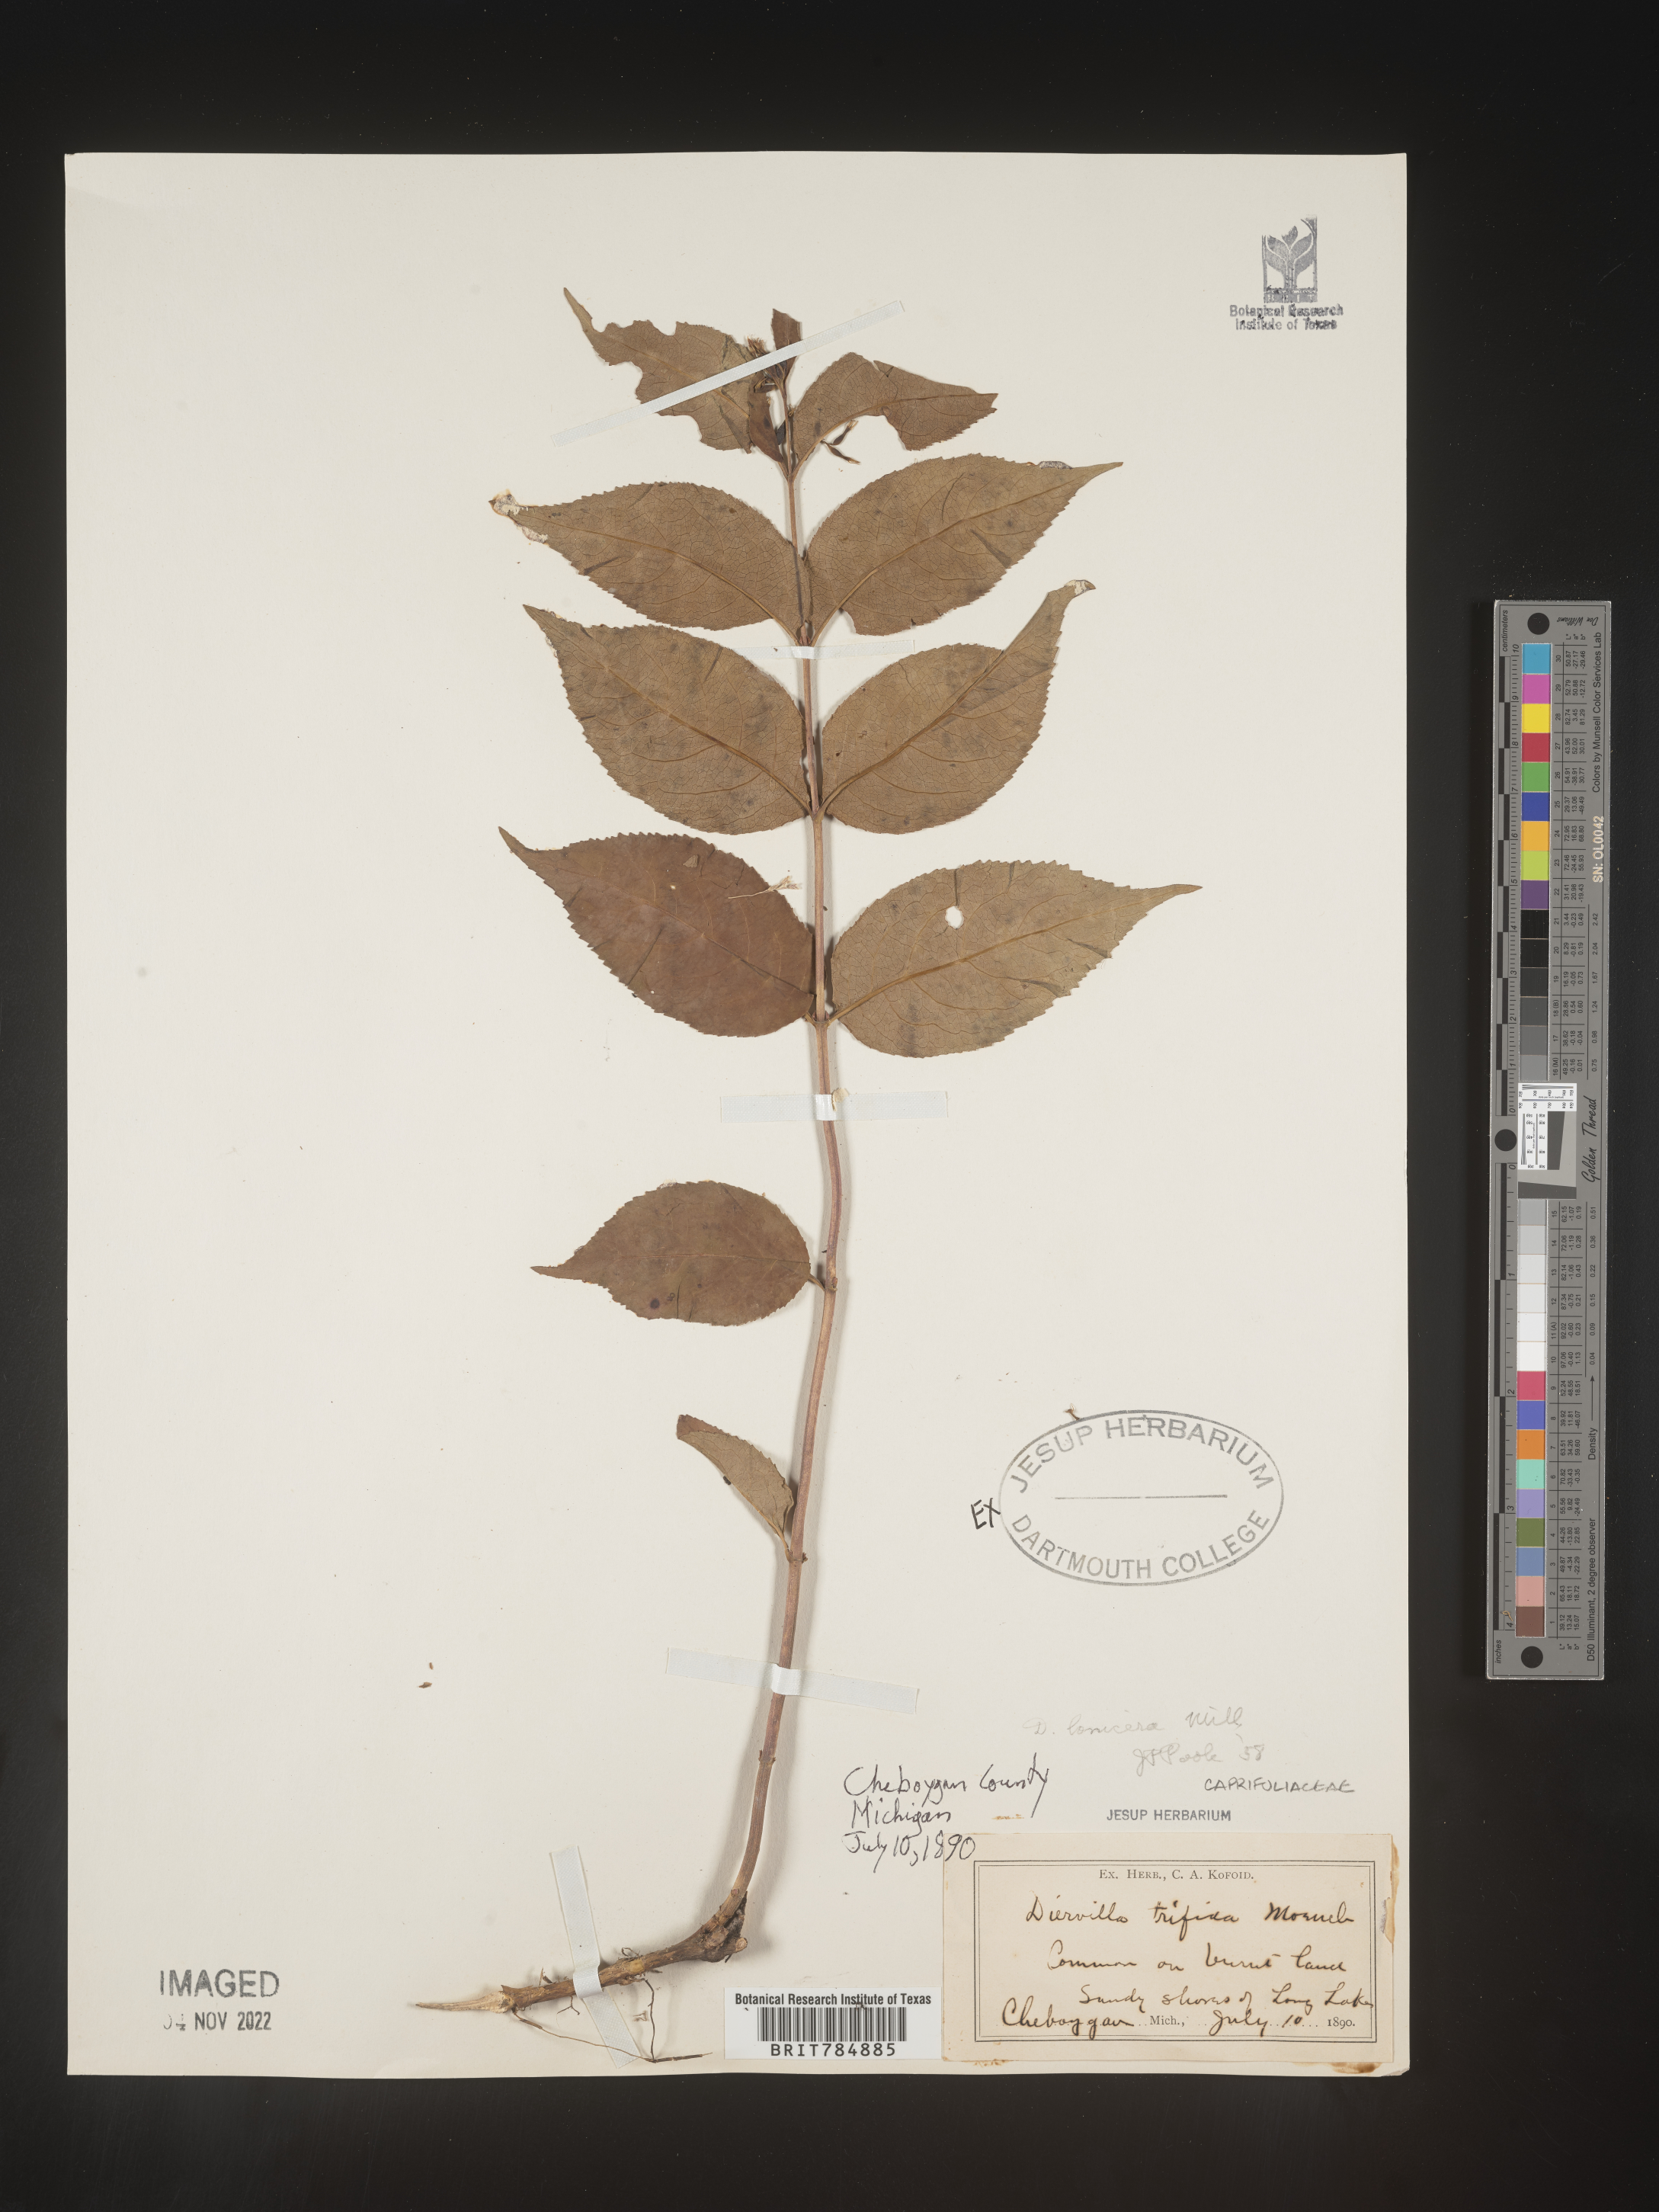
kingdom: Plantae
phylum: Tracheophyta
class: Magnoliopsida
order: Dipsacales
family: Caprifoliaceae
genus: Diervilla
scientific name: Diervilla lonicera
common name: Bush-honeysuckle
